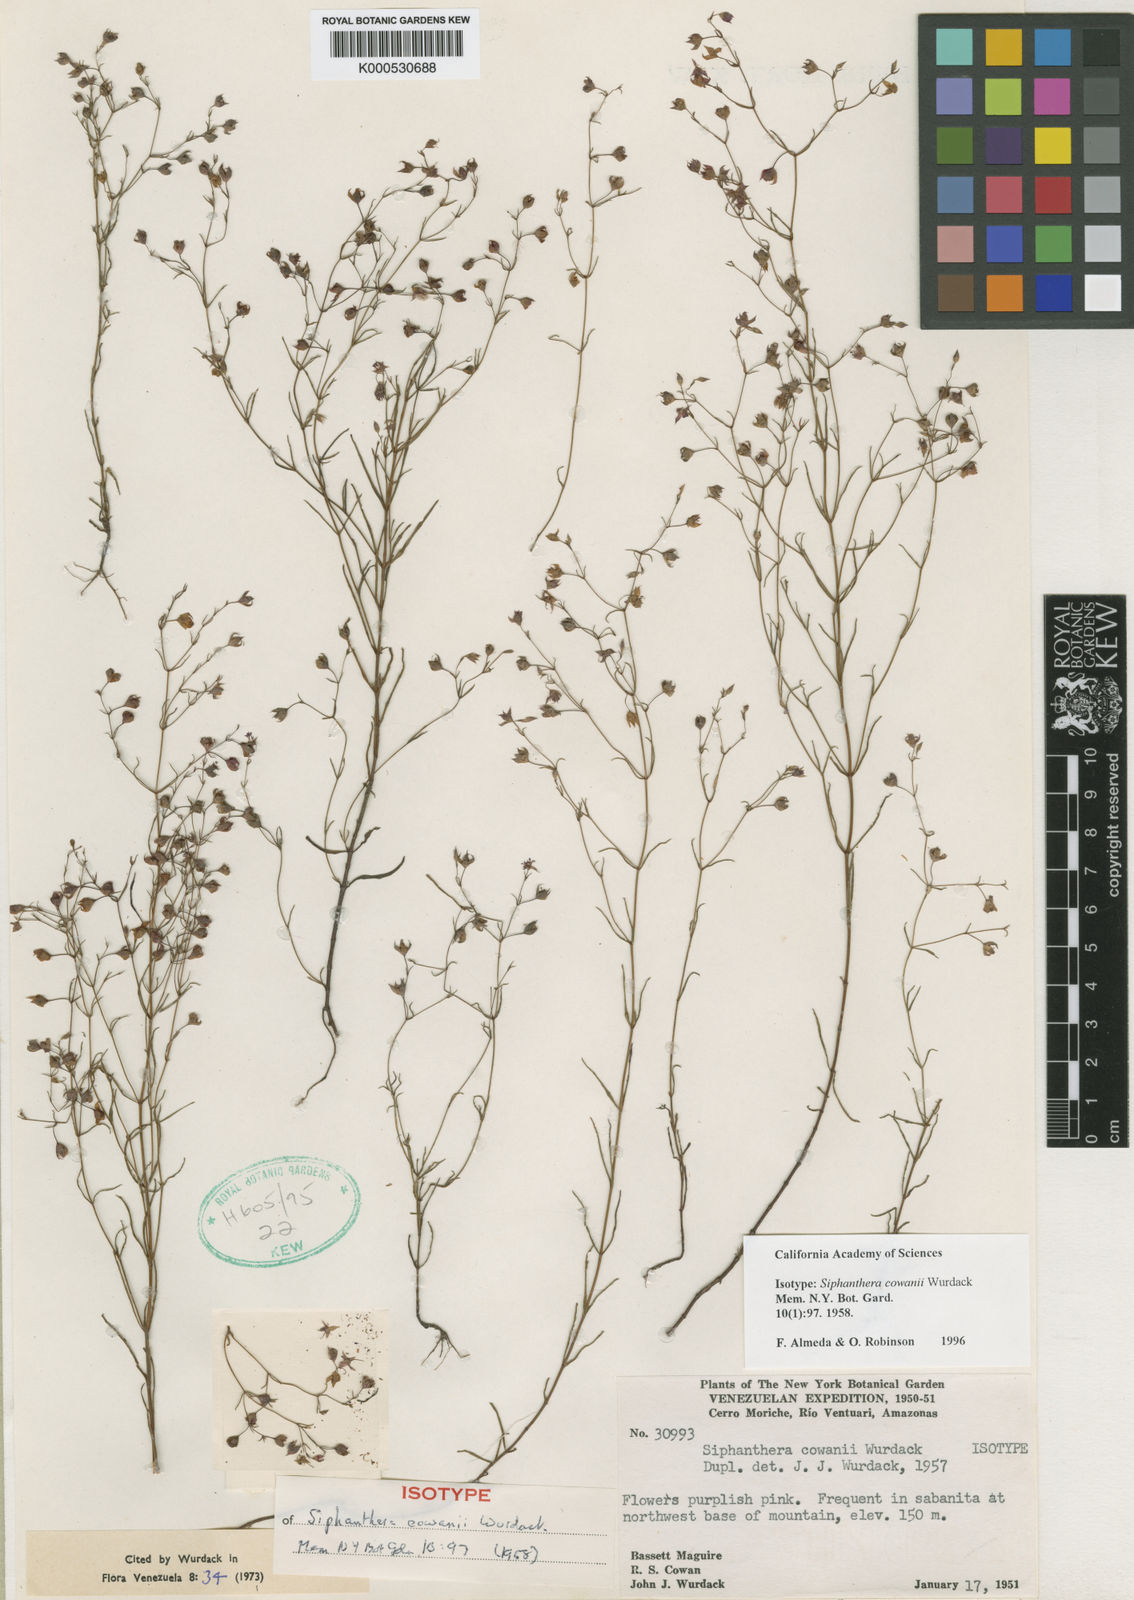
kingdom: Plantae
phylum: Tracheophyta
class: Magnoliopsida
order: Myrtales
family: Melastomataceae
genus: Siphanthera
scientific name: Siphanthera cowanii
